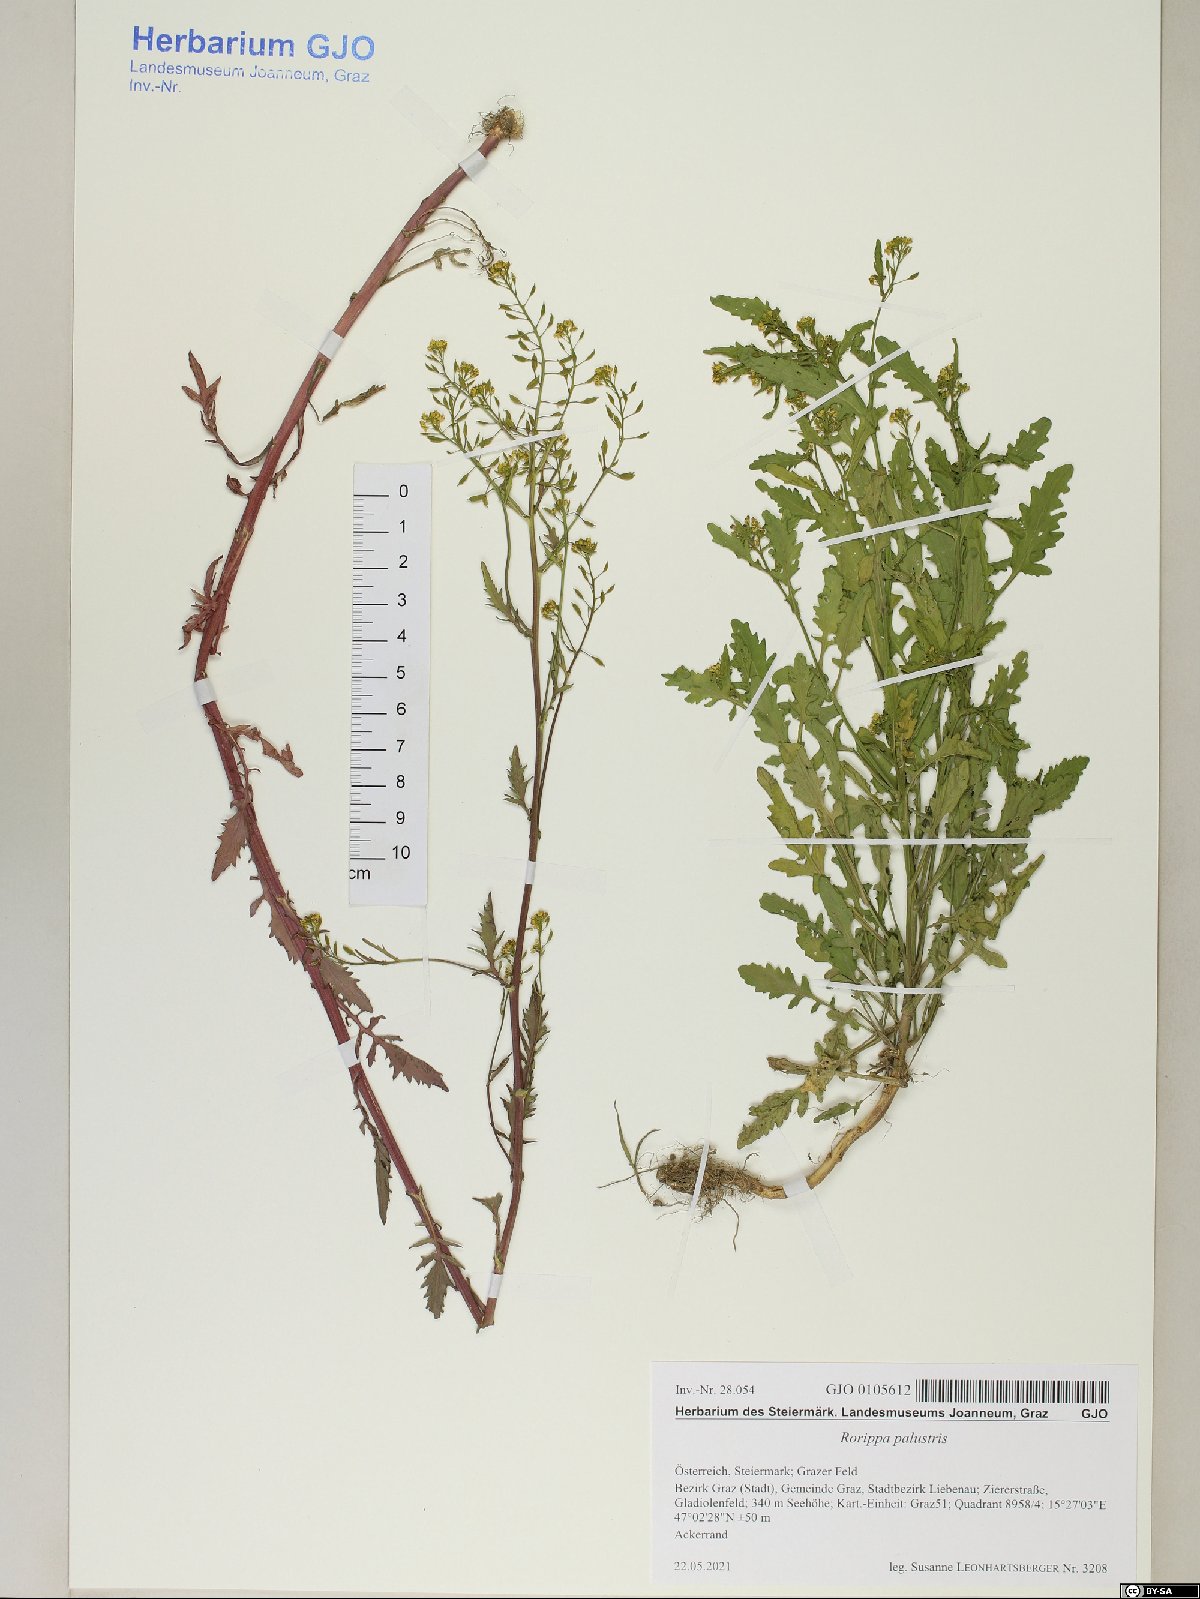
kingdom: Plantae
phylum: Tracheophyta
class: Magnoliopsida
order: Brassicales
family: Brassicaceae
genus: Rorippa
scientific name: Rorippa palustris
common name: Marsh yellow-cress
